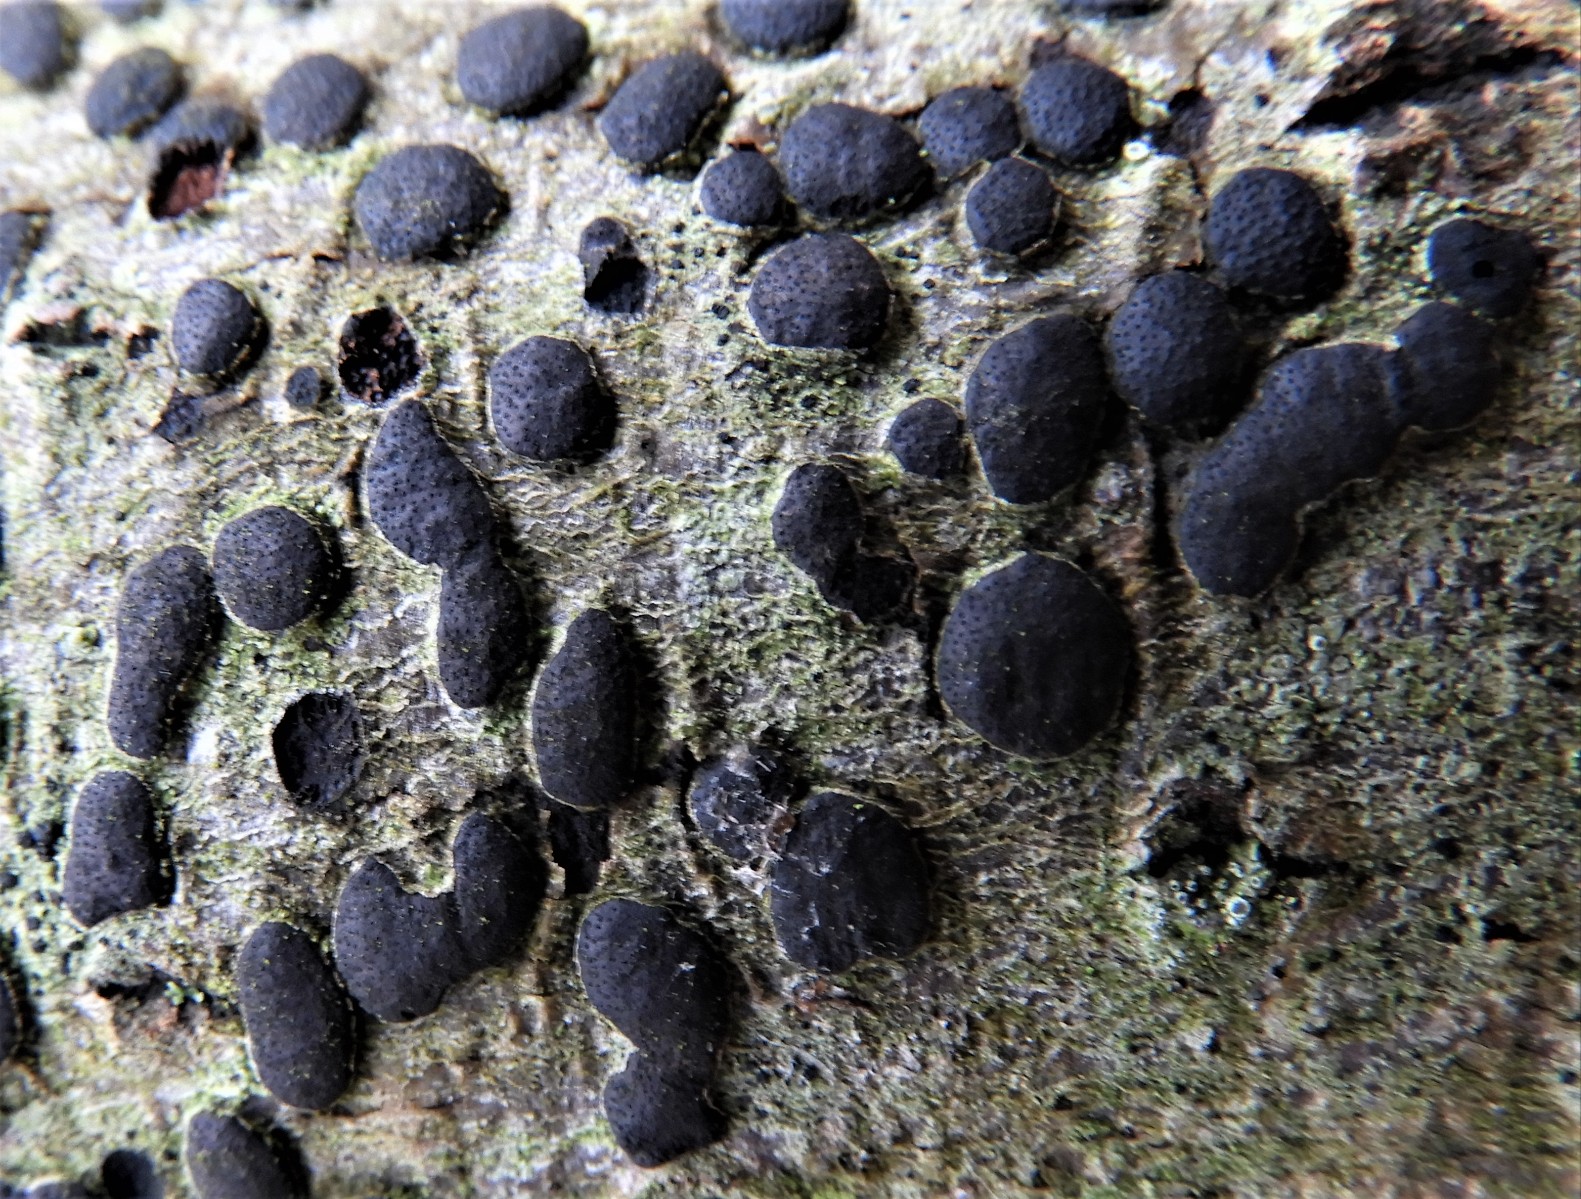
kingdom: Fungi
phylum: Ascomycota
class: Sordariomycetes
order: Xylariales
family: Diatrypaceae
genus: Diatrype
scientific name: Diatrype bullata
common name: pile-kulskorpe
